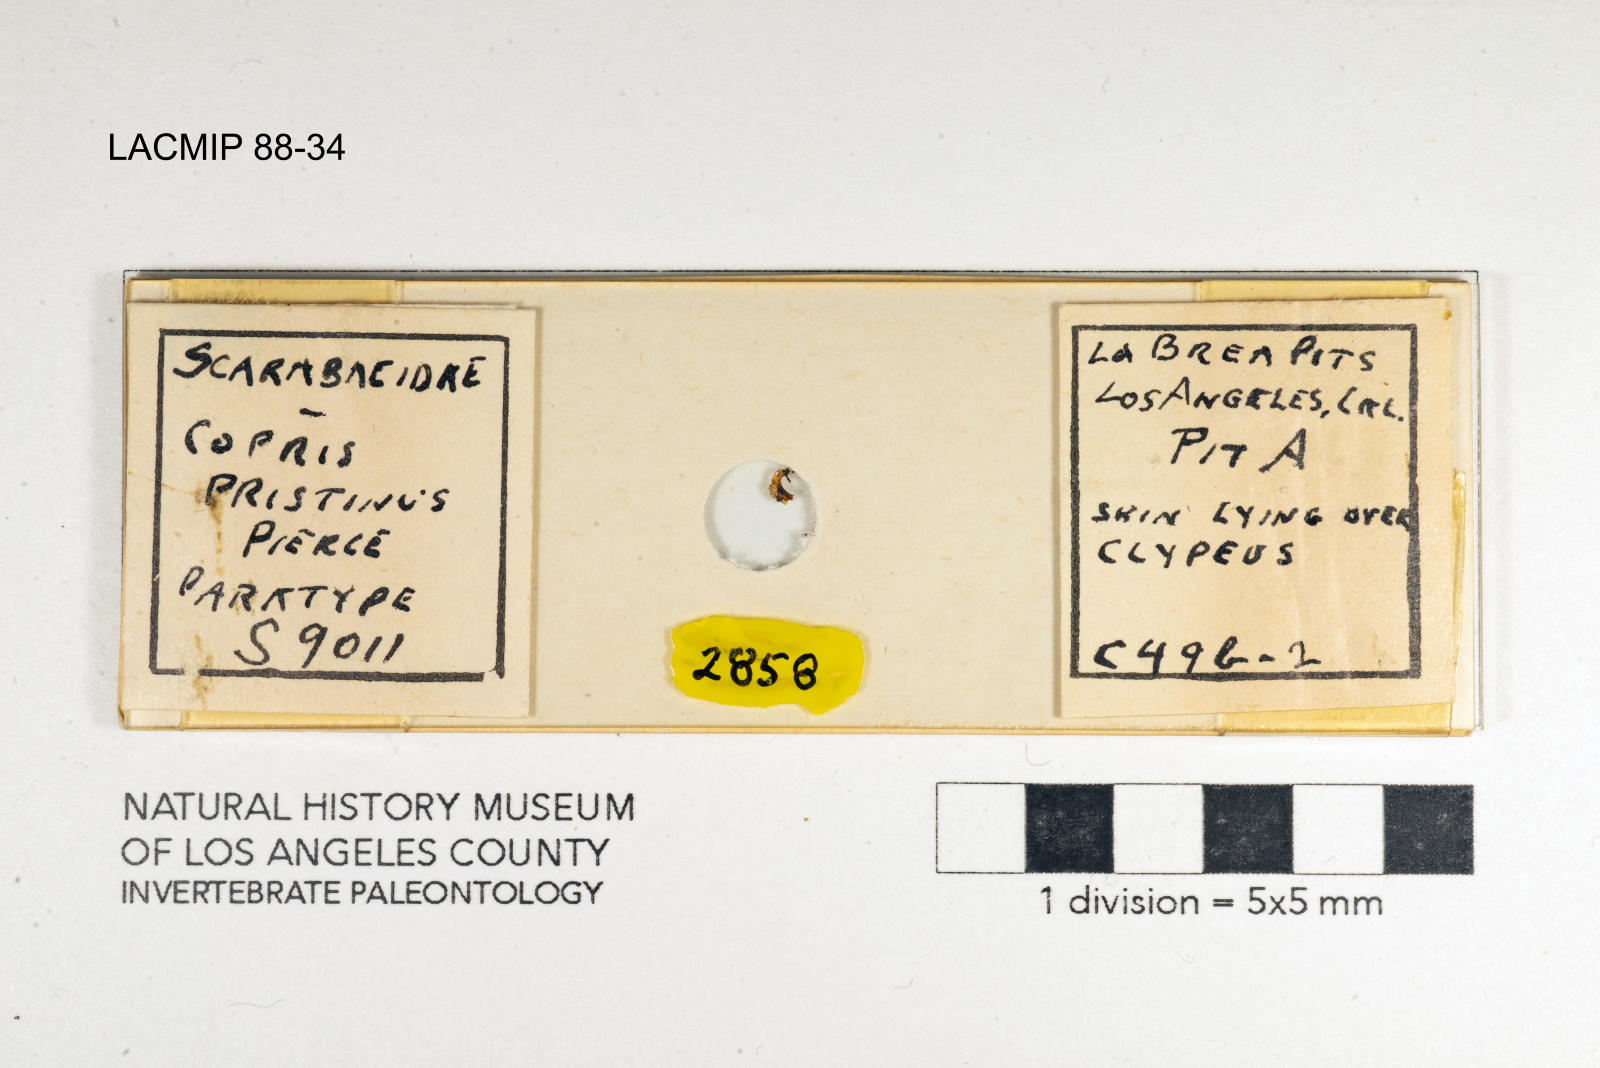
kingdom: Animalia
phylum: Arthropoda
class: Insecta
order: Coleoptera
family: Scarabaeidae
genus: Copris
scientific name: Copris pristinus
